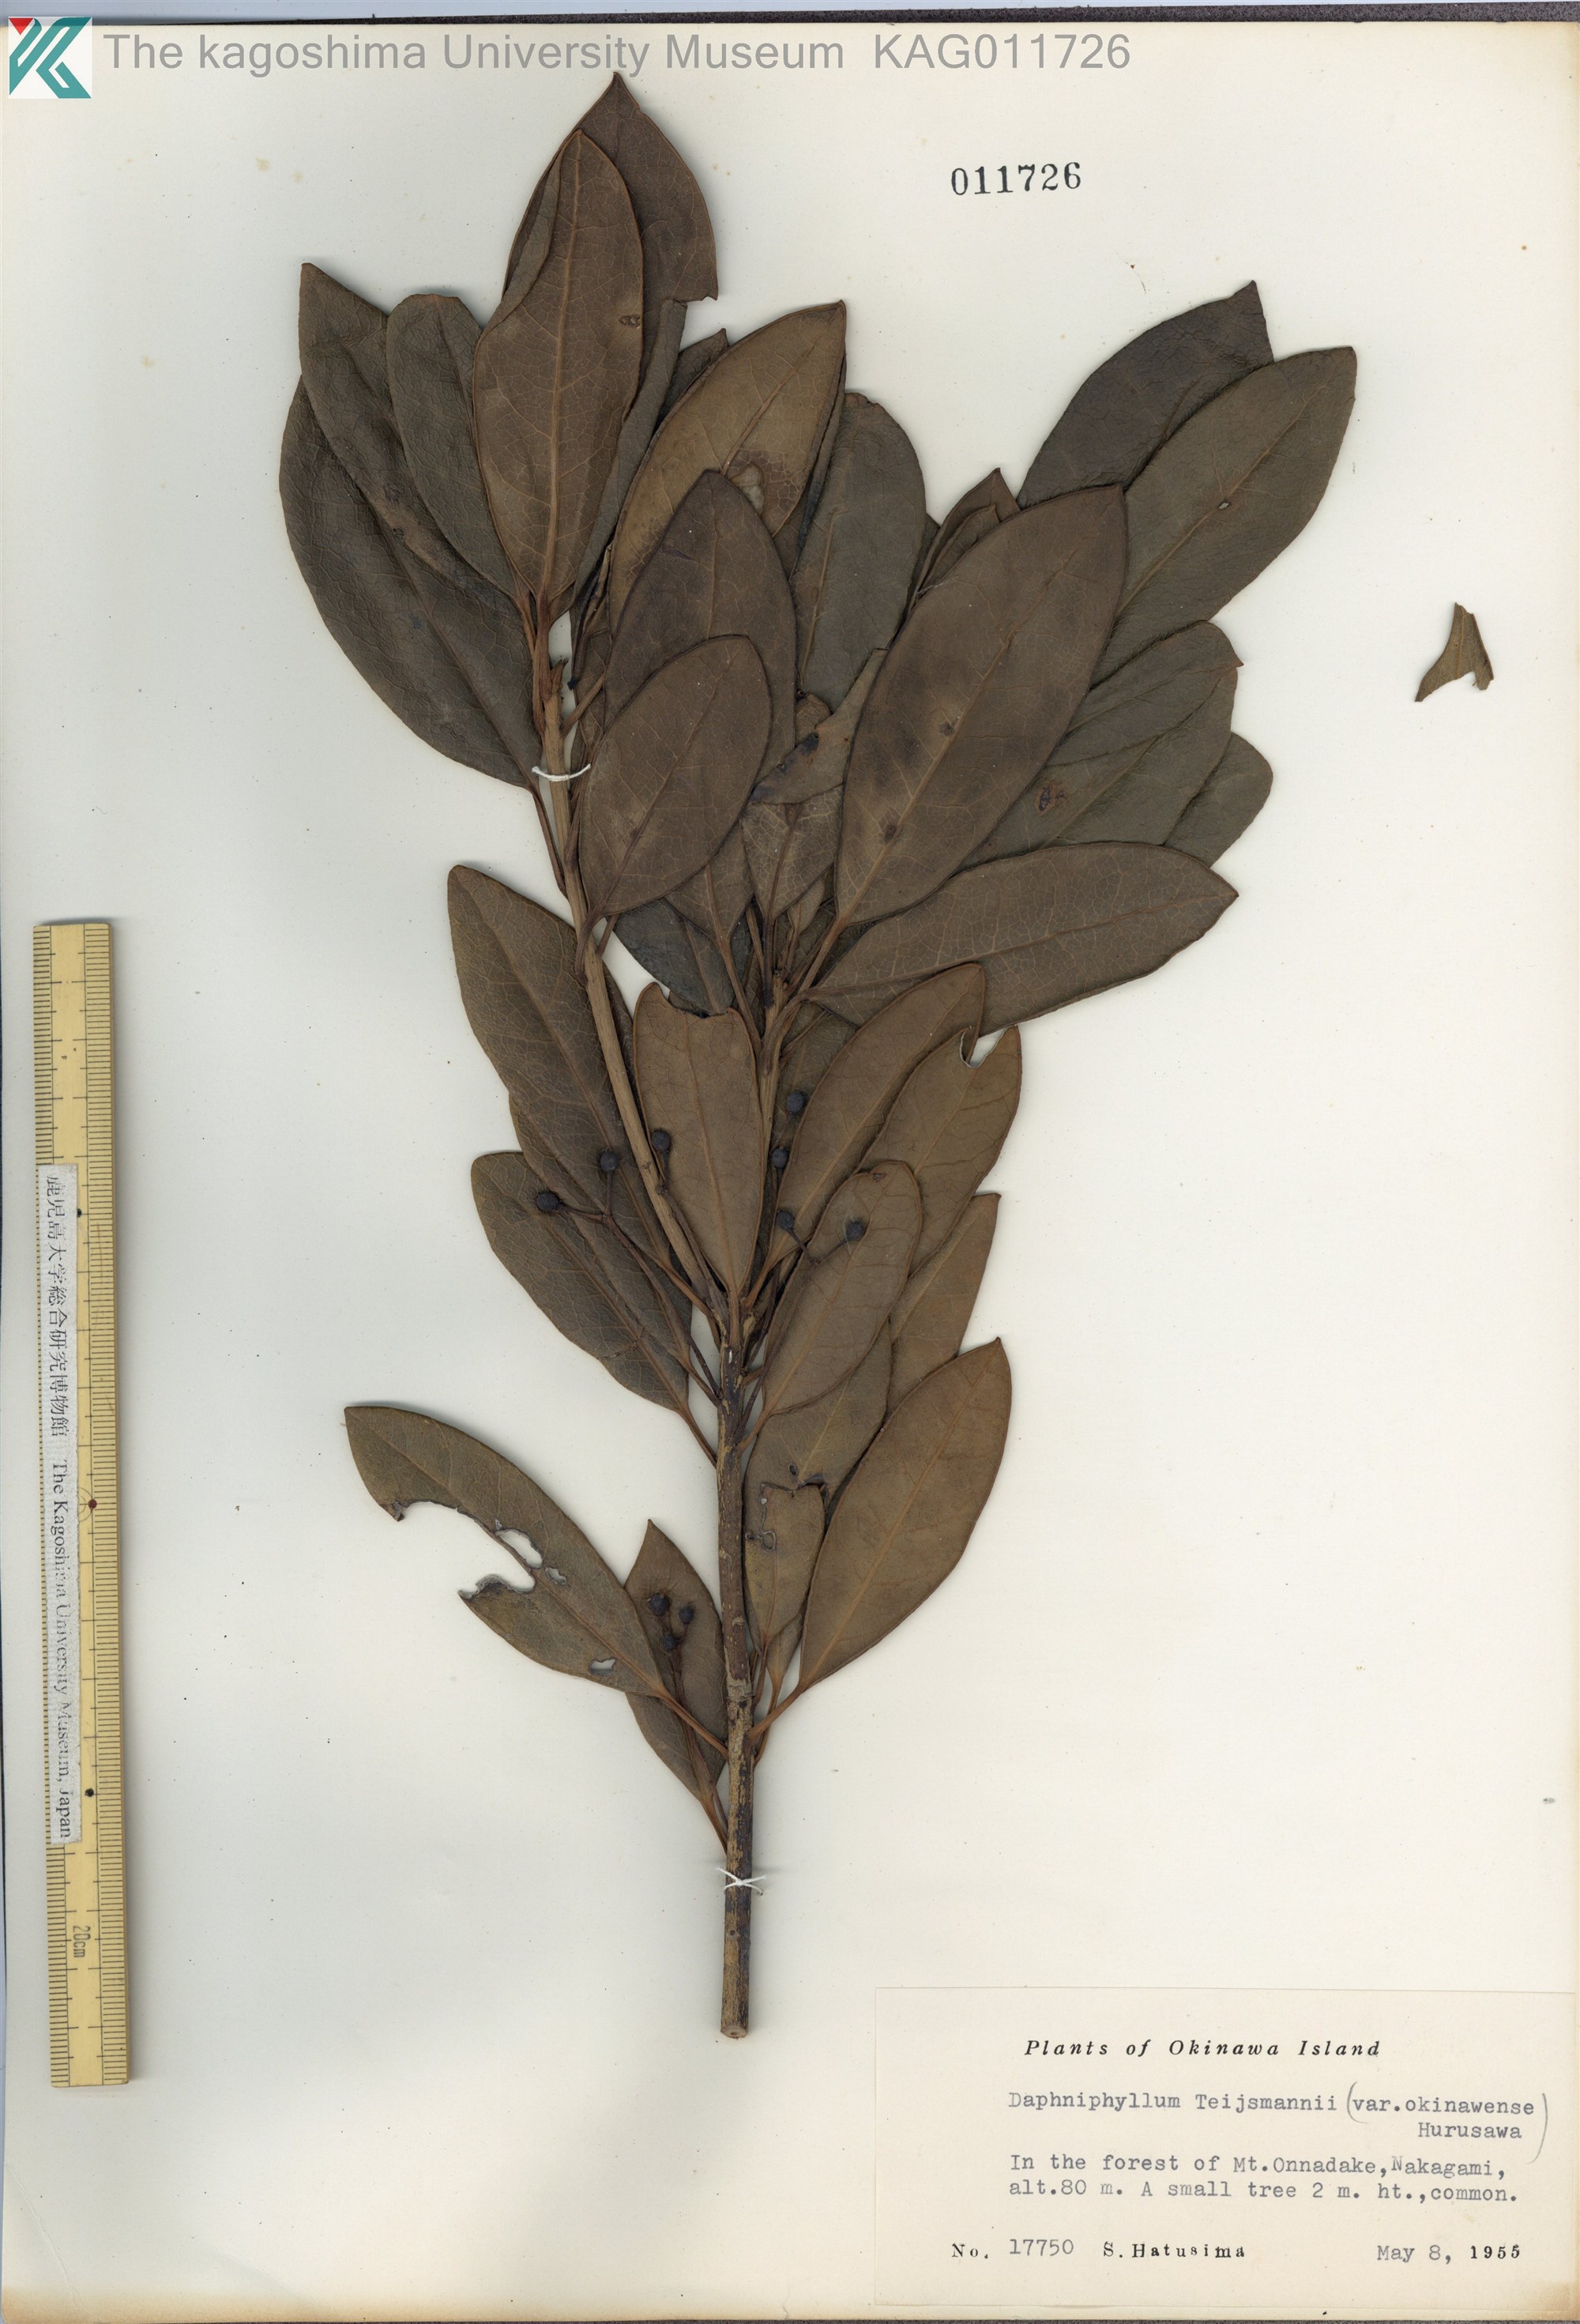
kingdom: Plantae
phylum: Tracheophyta
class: Magnoliopsida
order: Saxifragales
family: Daphniphyllaceae
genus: Daphniphyllum
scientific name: Daphniphyllum teijsmannii
